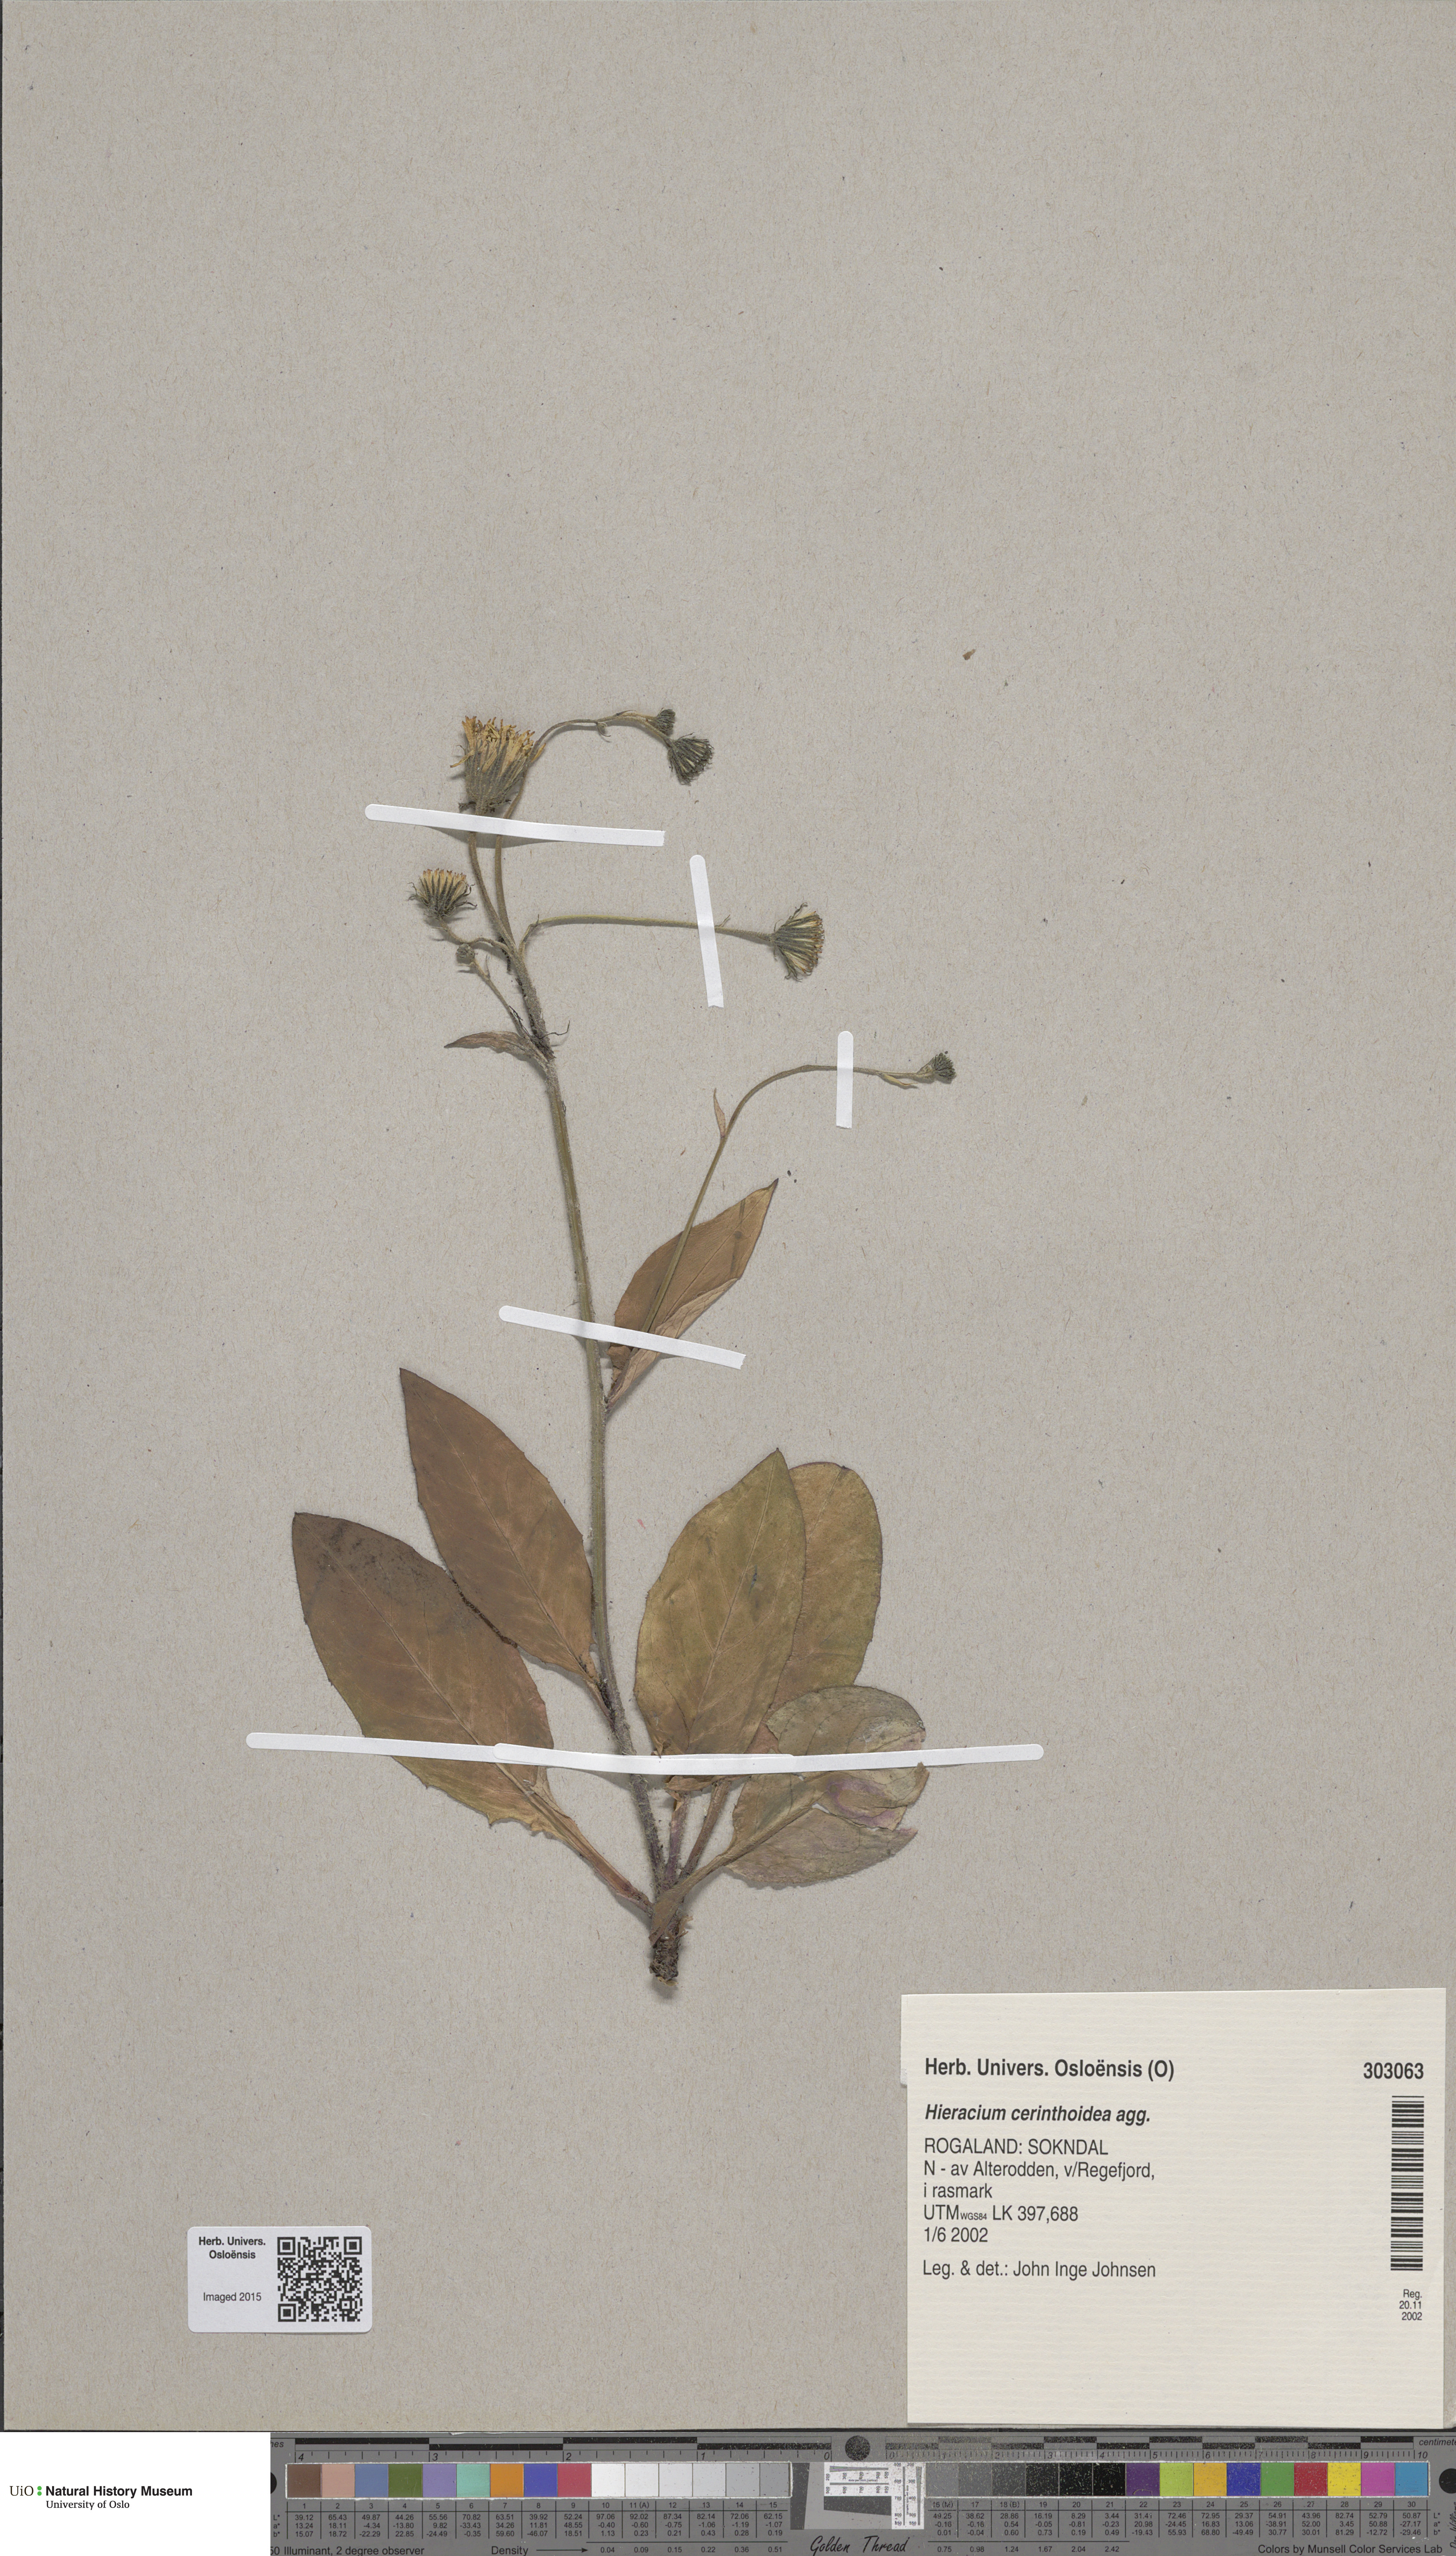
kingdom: Plantae
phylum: Tracheophyta
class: Magnoliopsida
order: Asterales
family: Asteraceae
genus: Hieracium
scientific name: Hieracium cerinthoides
